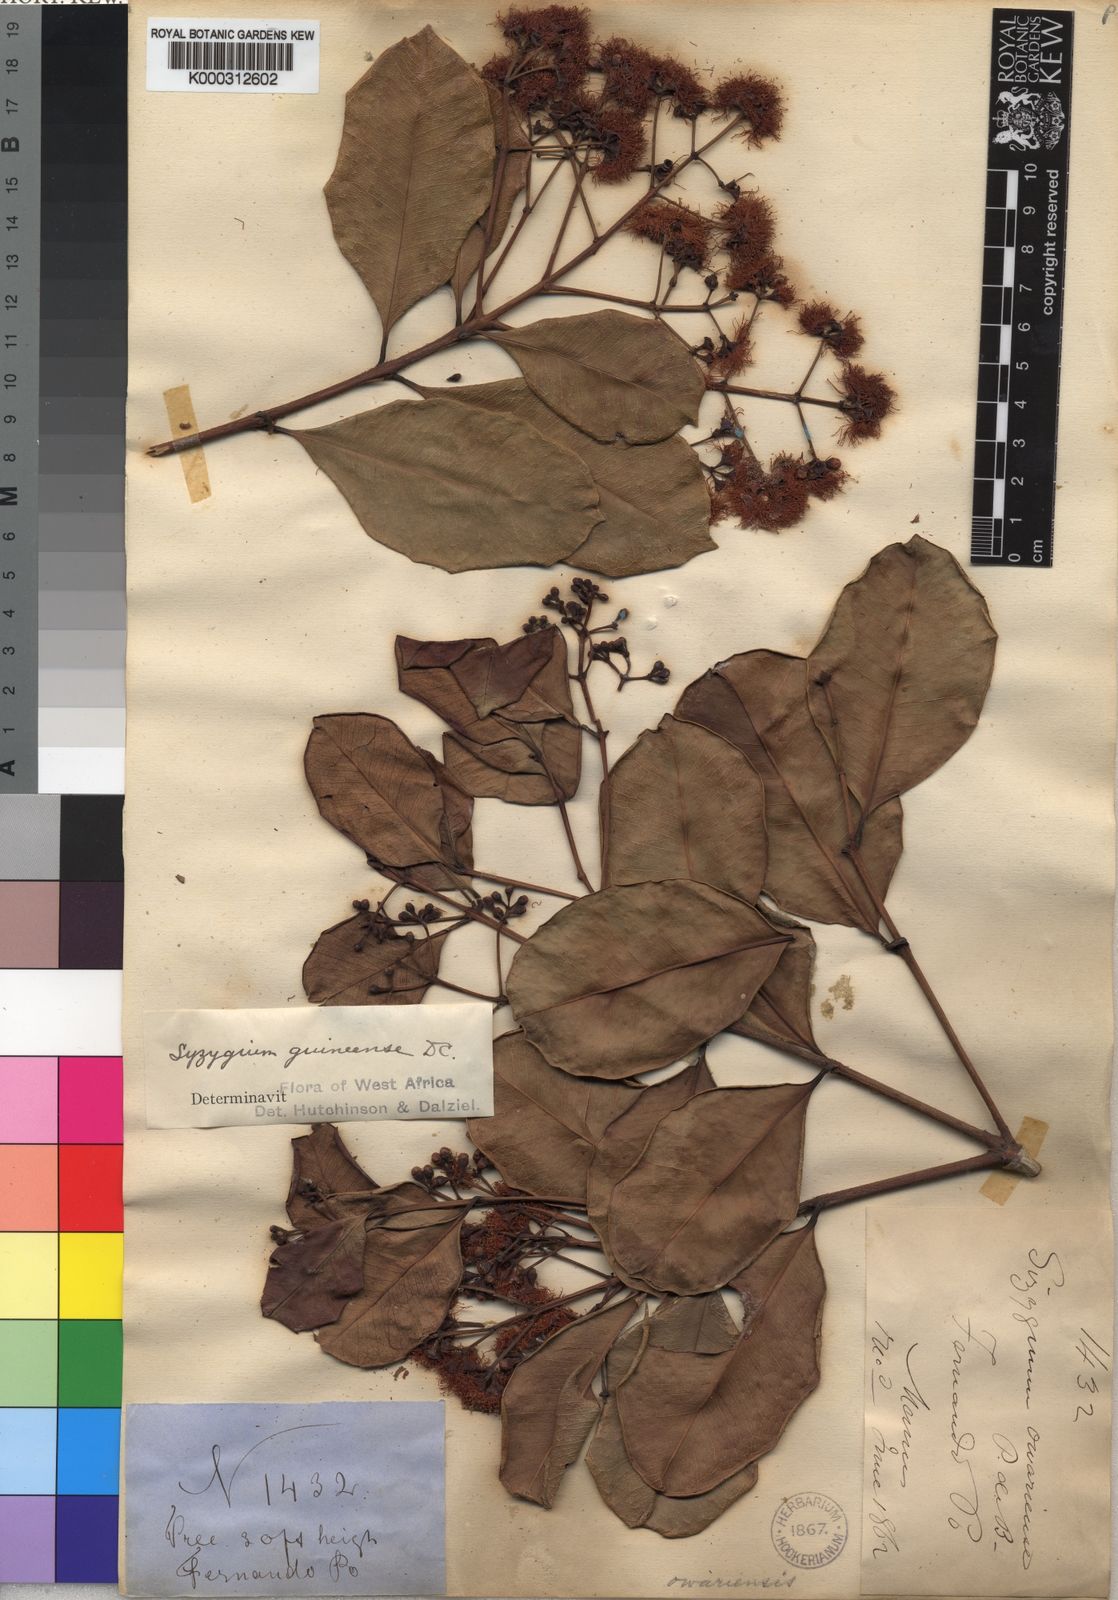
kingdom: Plantae
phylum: Tracheophyta
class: Magnoliopsida
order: Myrtales
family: Myrtaceae
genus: Syzygium
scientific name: Syzygium
